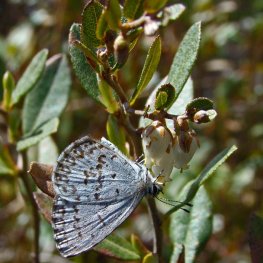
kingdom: Animalia
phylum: Arthropoda
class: Insecta
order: Lepidoptera
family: Lycaenidae
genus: Celastrina
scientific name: Celastrina lucia
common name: Northern Spring Azure
